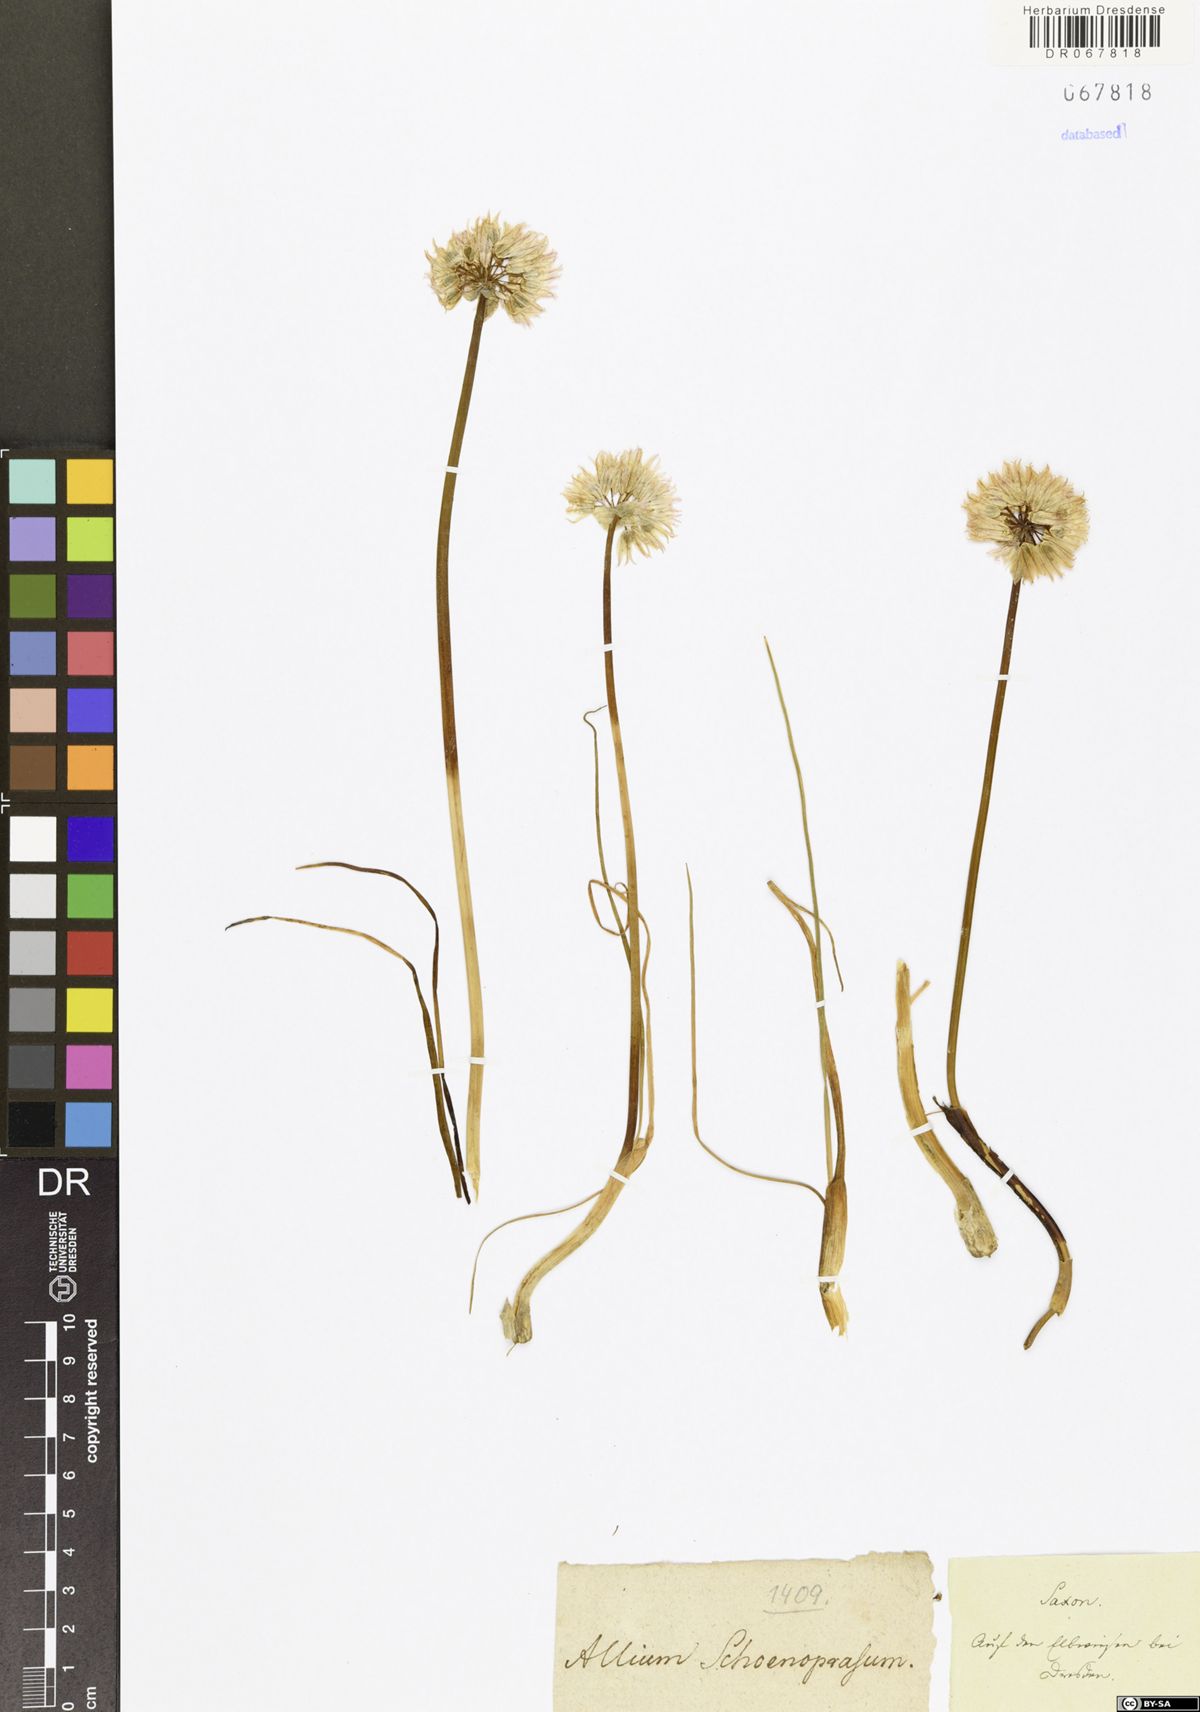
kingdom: Plantae
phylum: Tracheophyta
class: Liliopsida
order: Asparagales
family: Amaryllidaceae
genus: Allium
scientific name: Allium schoenoprasum
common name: Chives
